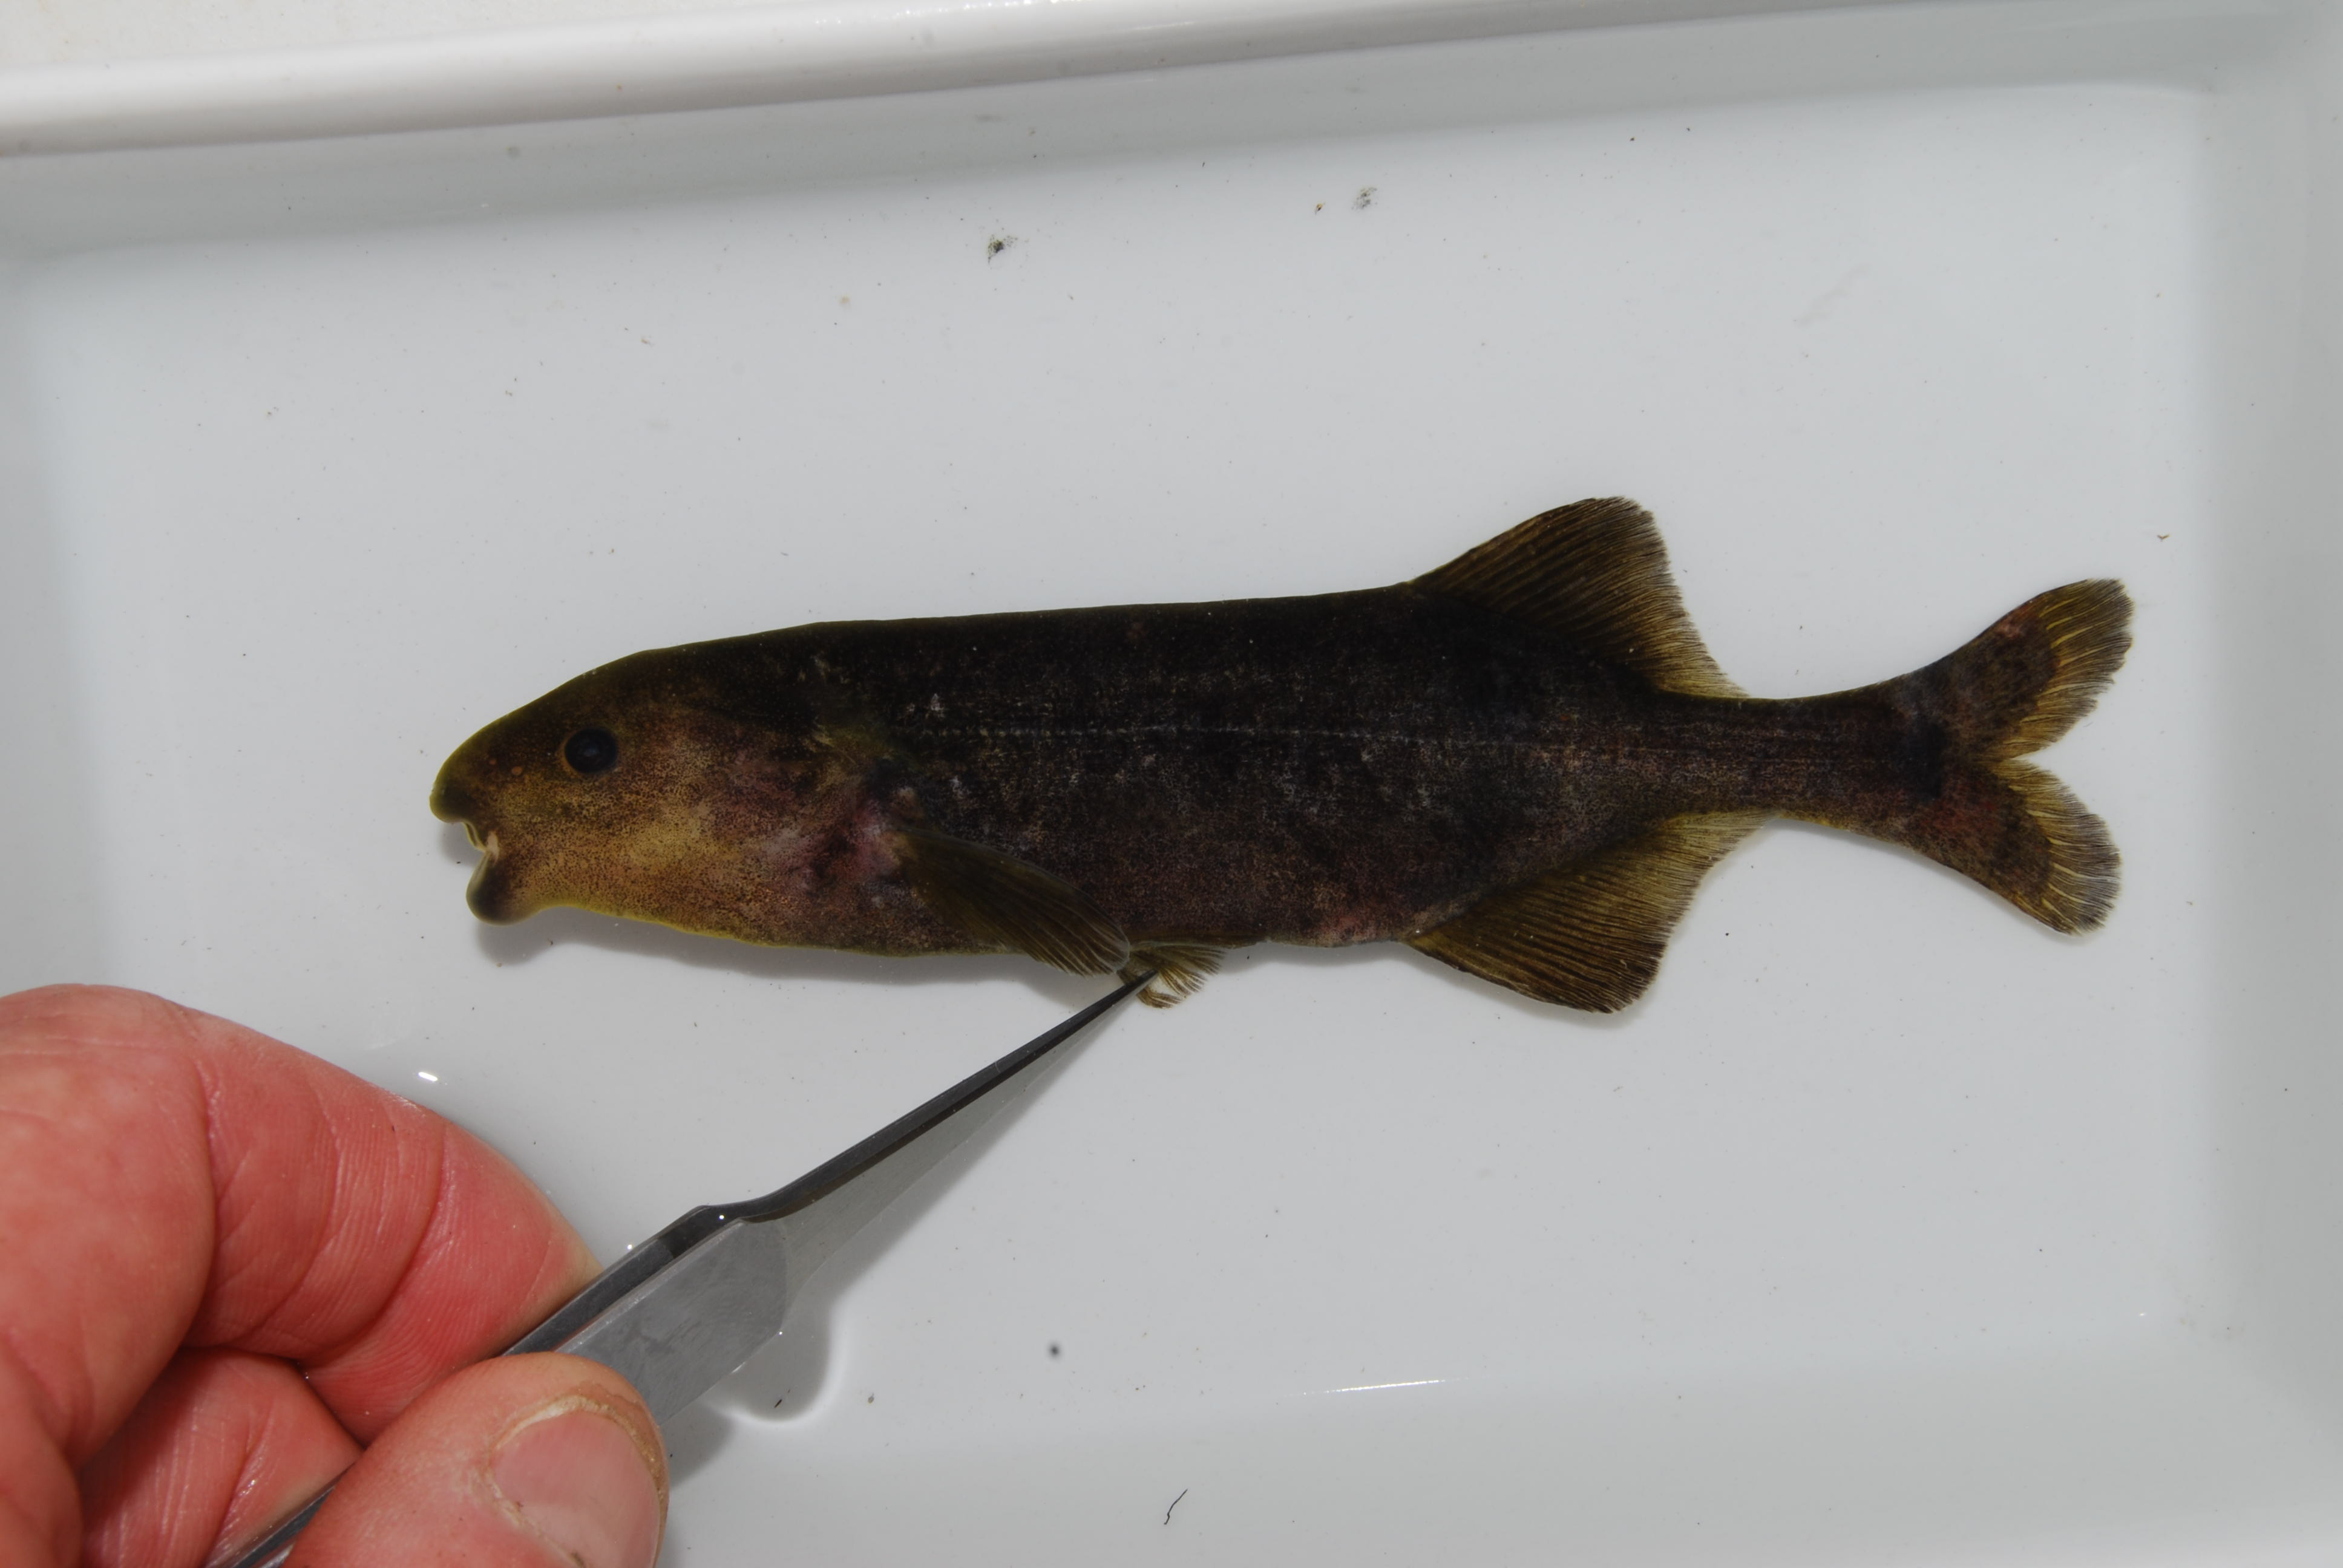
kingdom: Animalia
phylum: Chordata
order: Osteoglossiformes
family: Mormyridae
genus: Hippopotamyrus
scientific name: Hippopotamyrus
